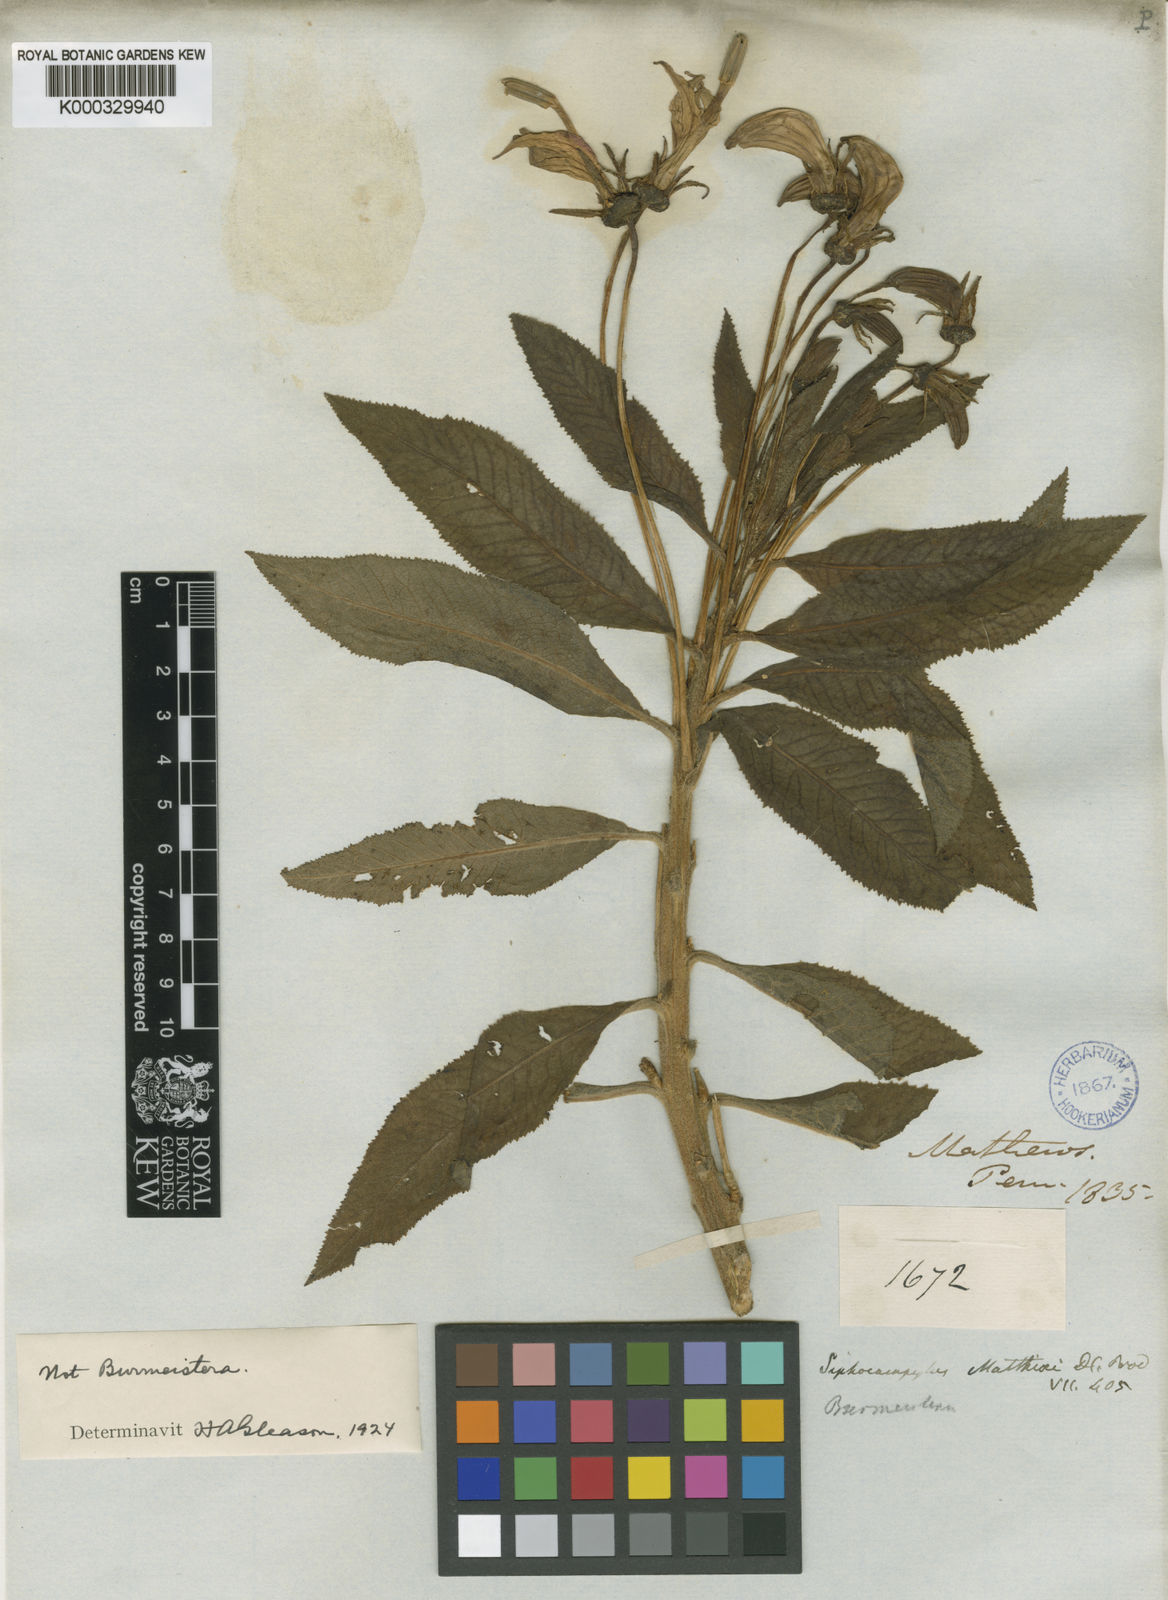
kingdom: Plantae
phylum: Tracheophyta
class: Magnoliopsida
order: Asterales
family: Campanulaceae
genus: Siphocampylus
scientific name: Siphocampylus matthiaei
